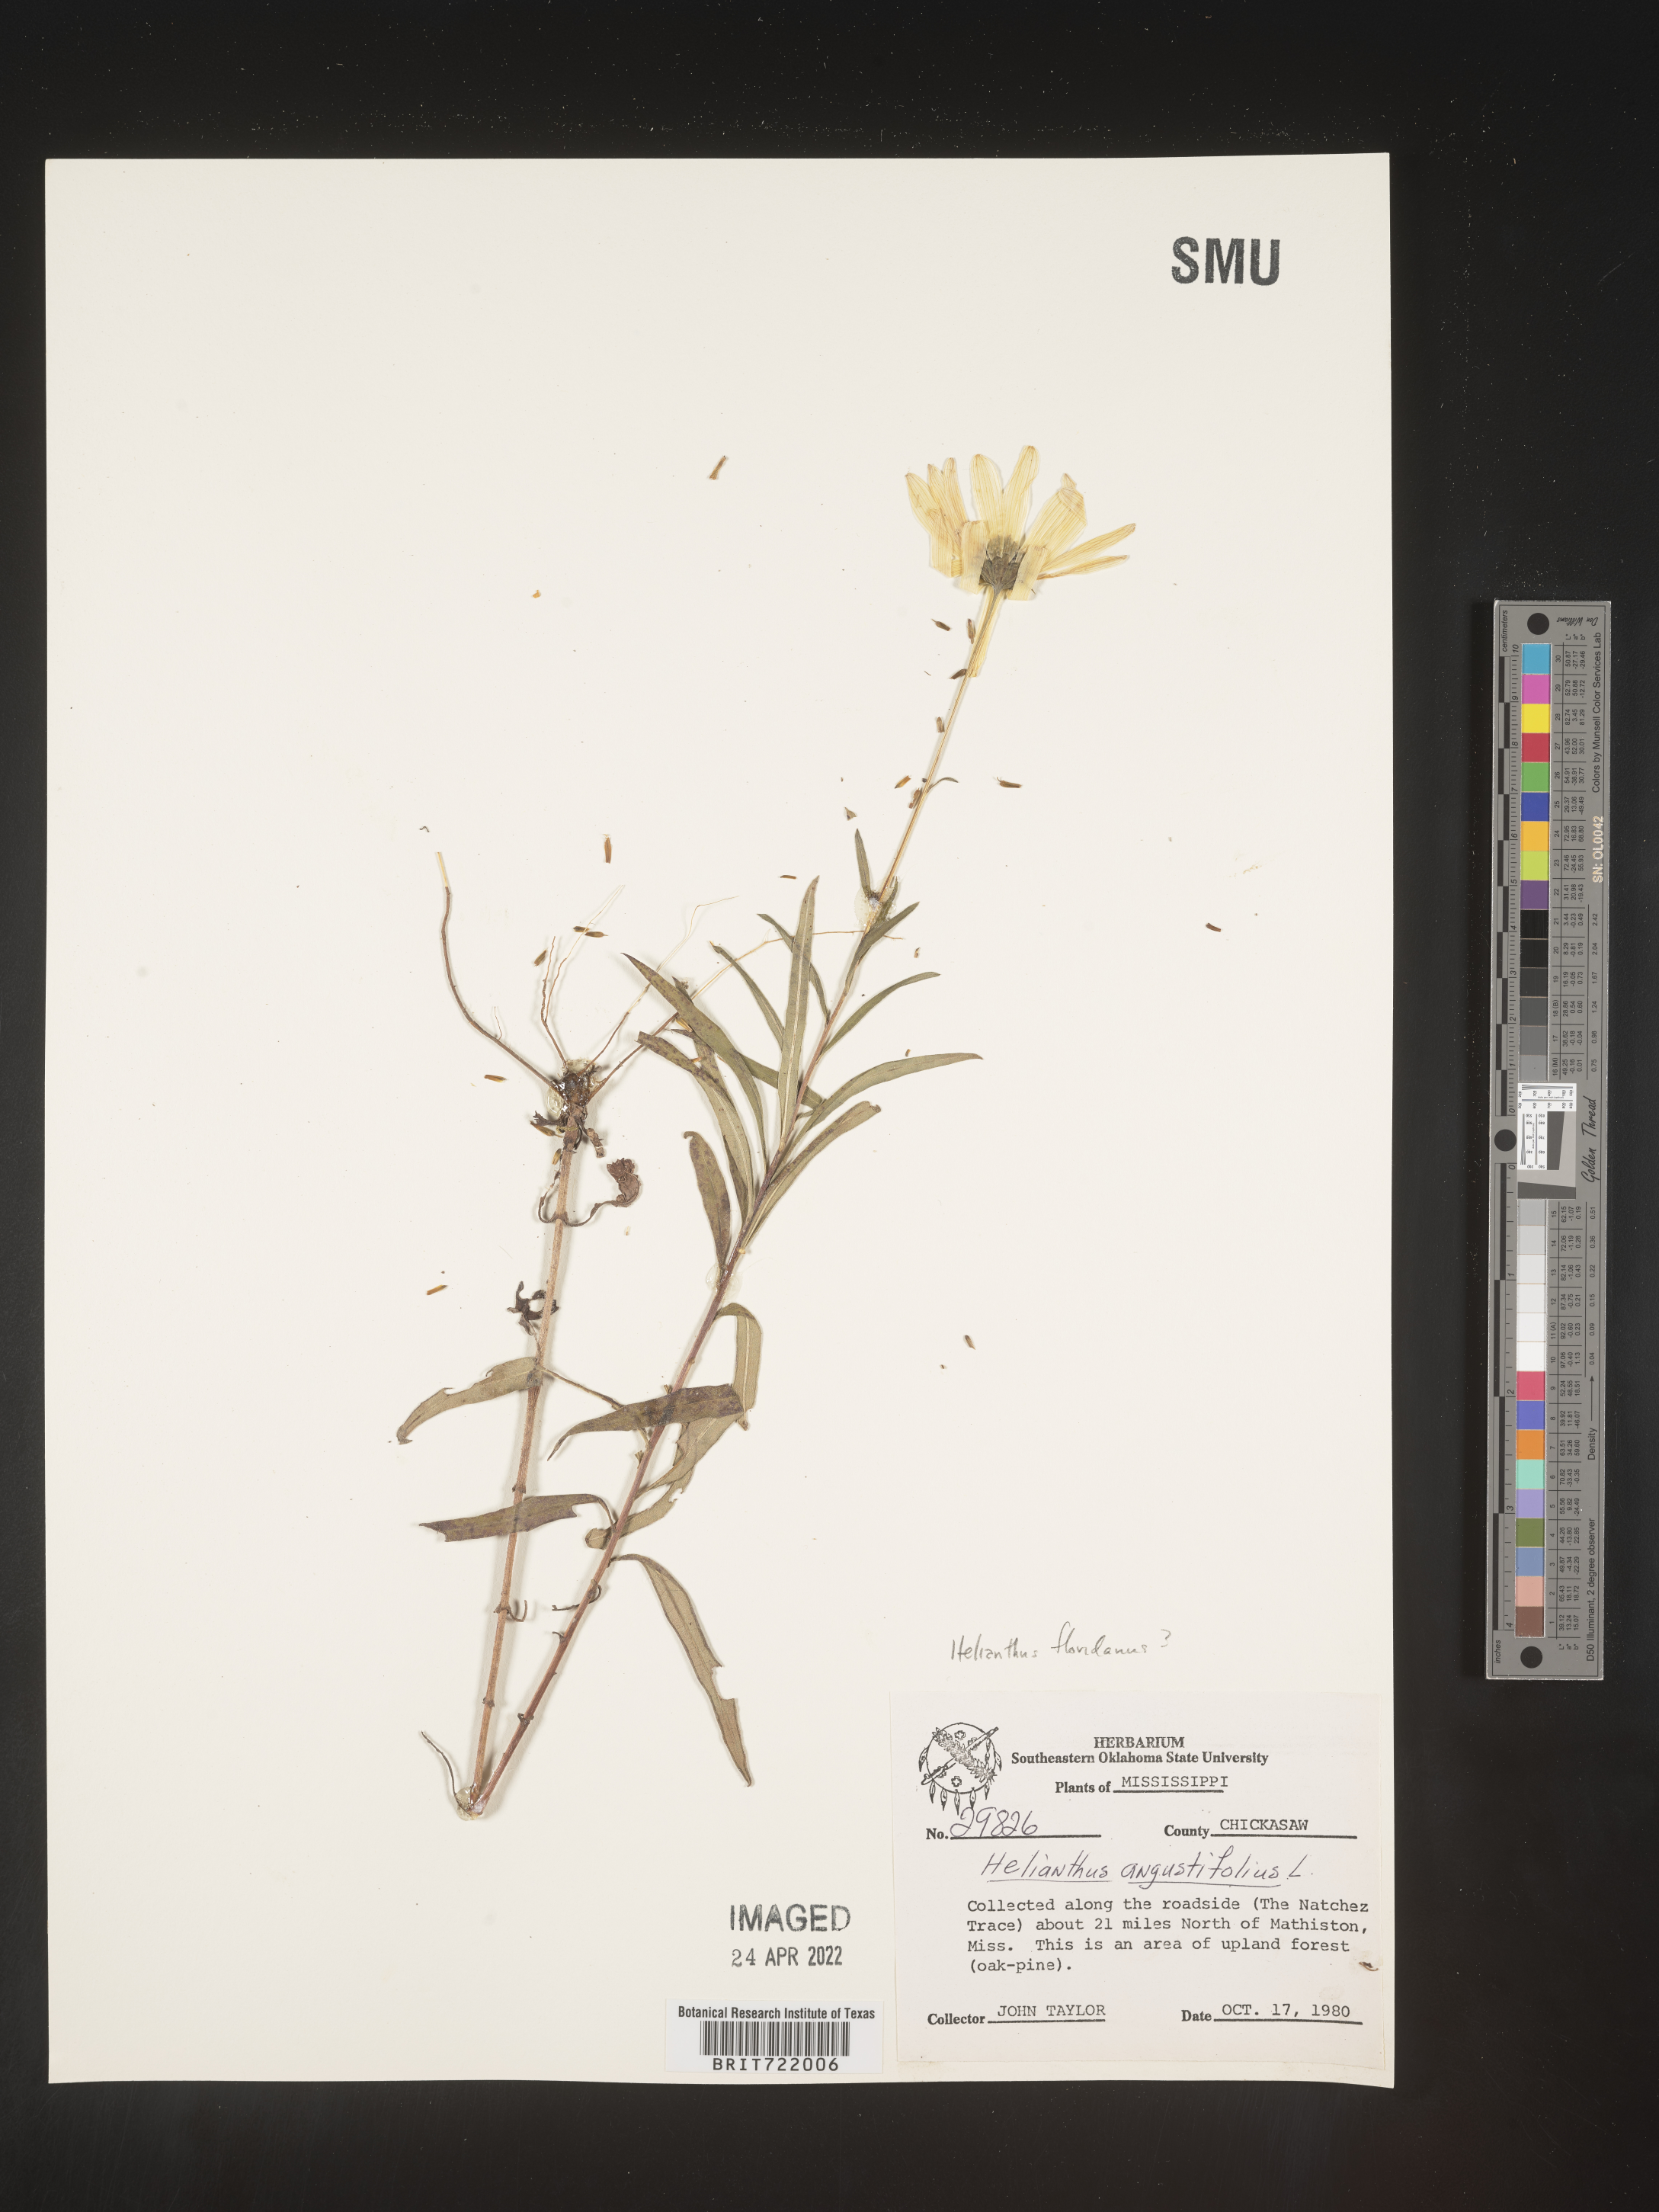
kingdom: Plantae
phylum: Tracheophyta
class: Magnoliopsida
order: Asterales
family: Asteraceae
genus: Helianthus
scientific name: Helianthus
